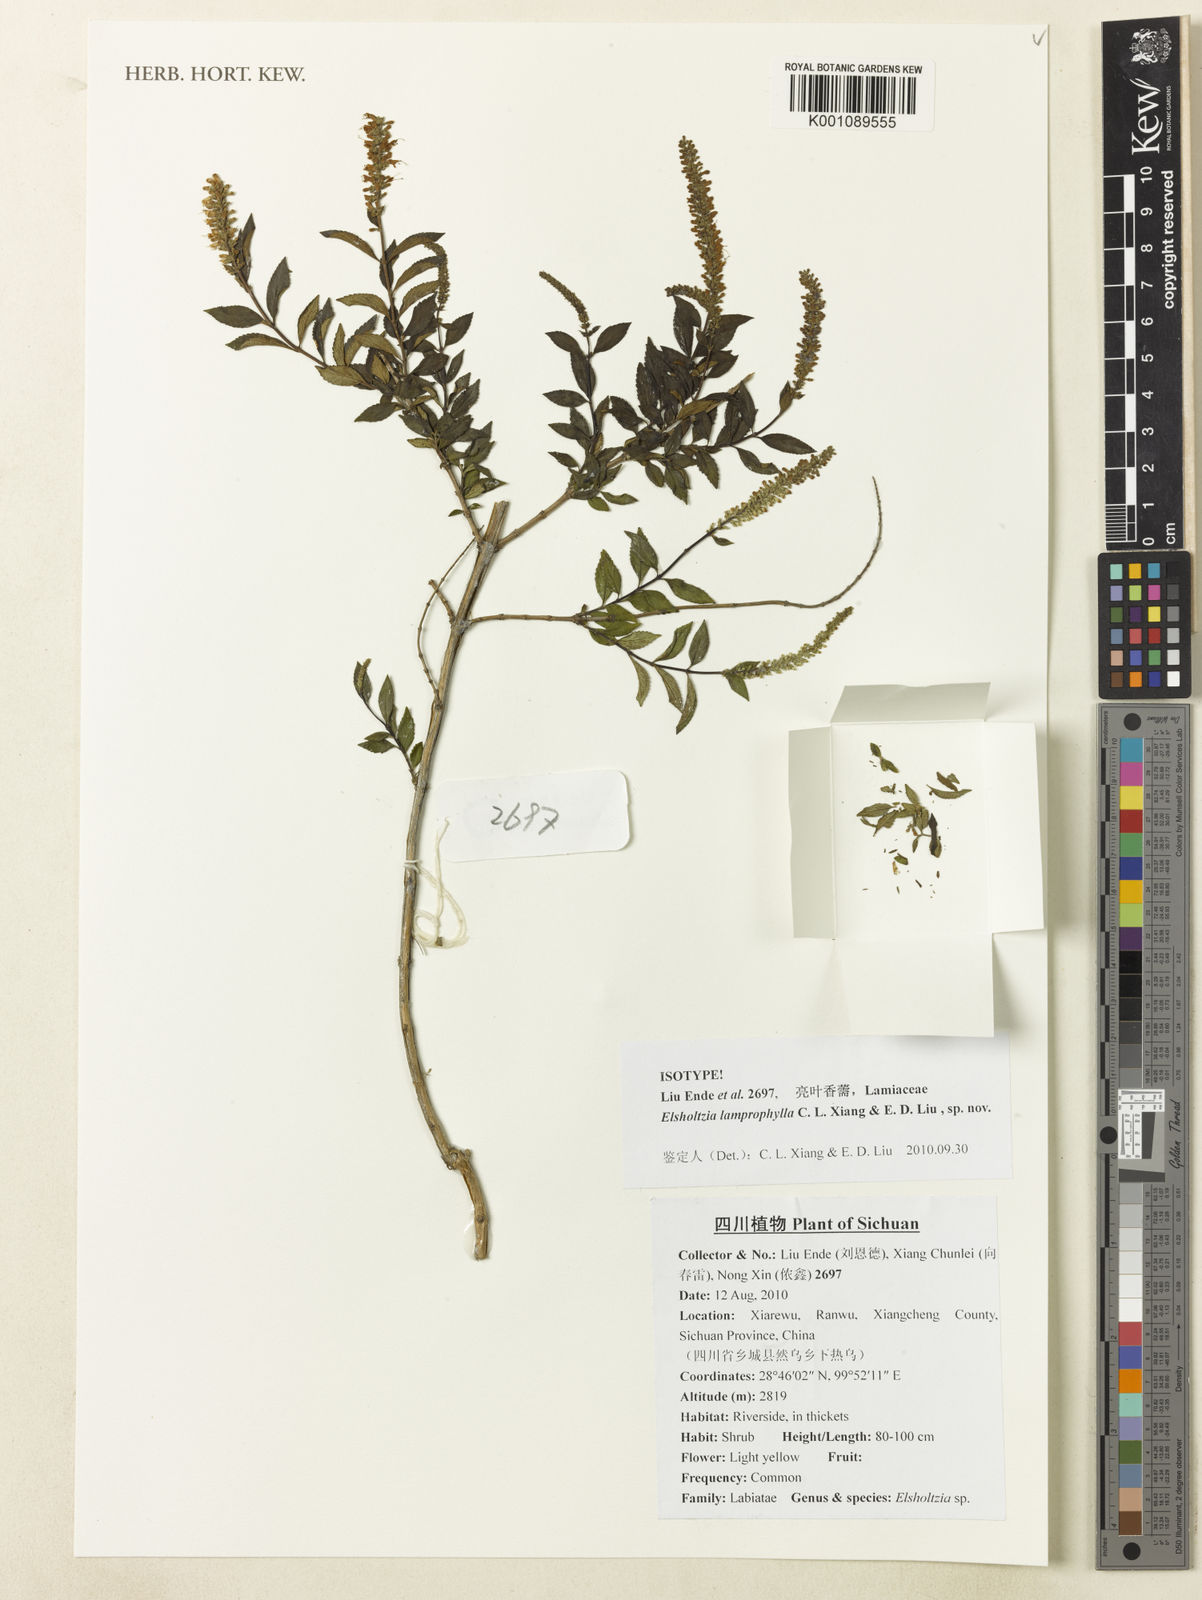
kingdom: Plantae
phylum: Tracheophyta
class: Magnoliopsida
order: Lamiales
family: Lamiaceae
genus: Elsholtzia
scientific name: Elsholtzia lamprophylla
